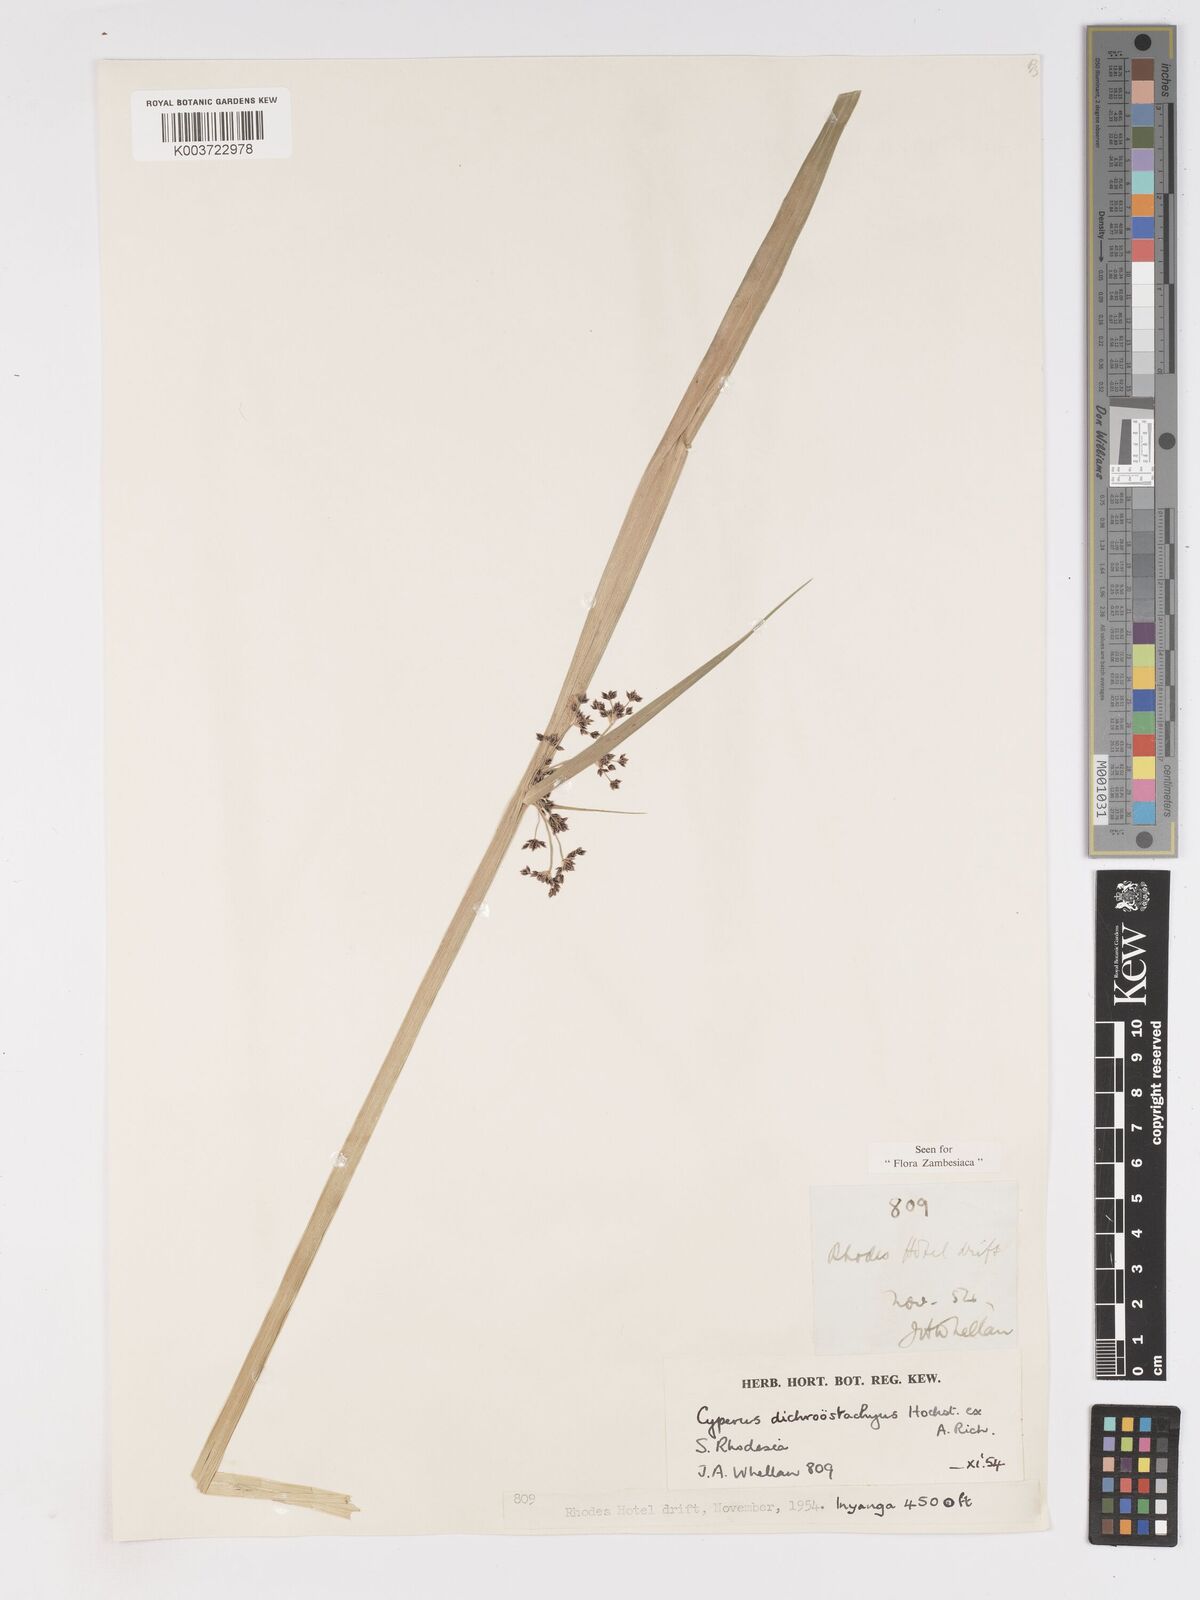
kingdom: Plantae
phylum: Tracheophyta
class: Liliopsida
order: Poales
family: Cyperaceae
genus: Cyperus
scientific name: Cyperus dichrostachyus
